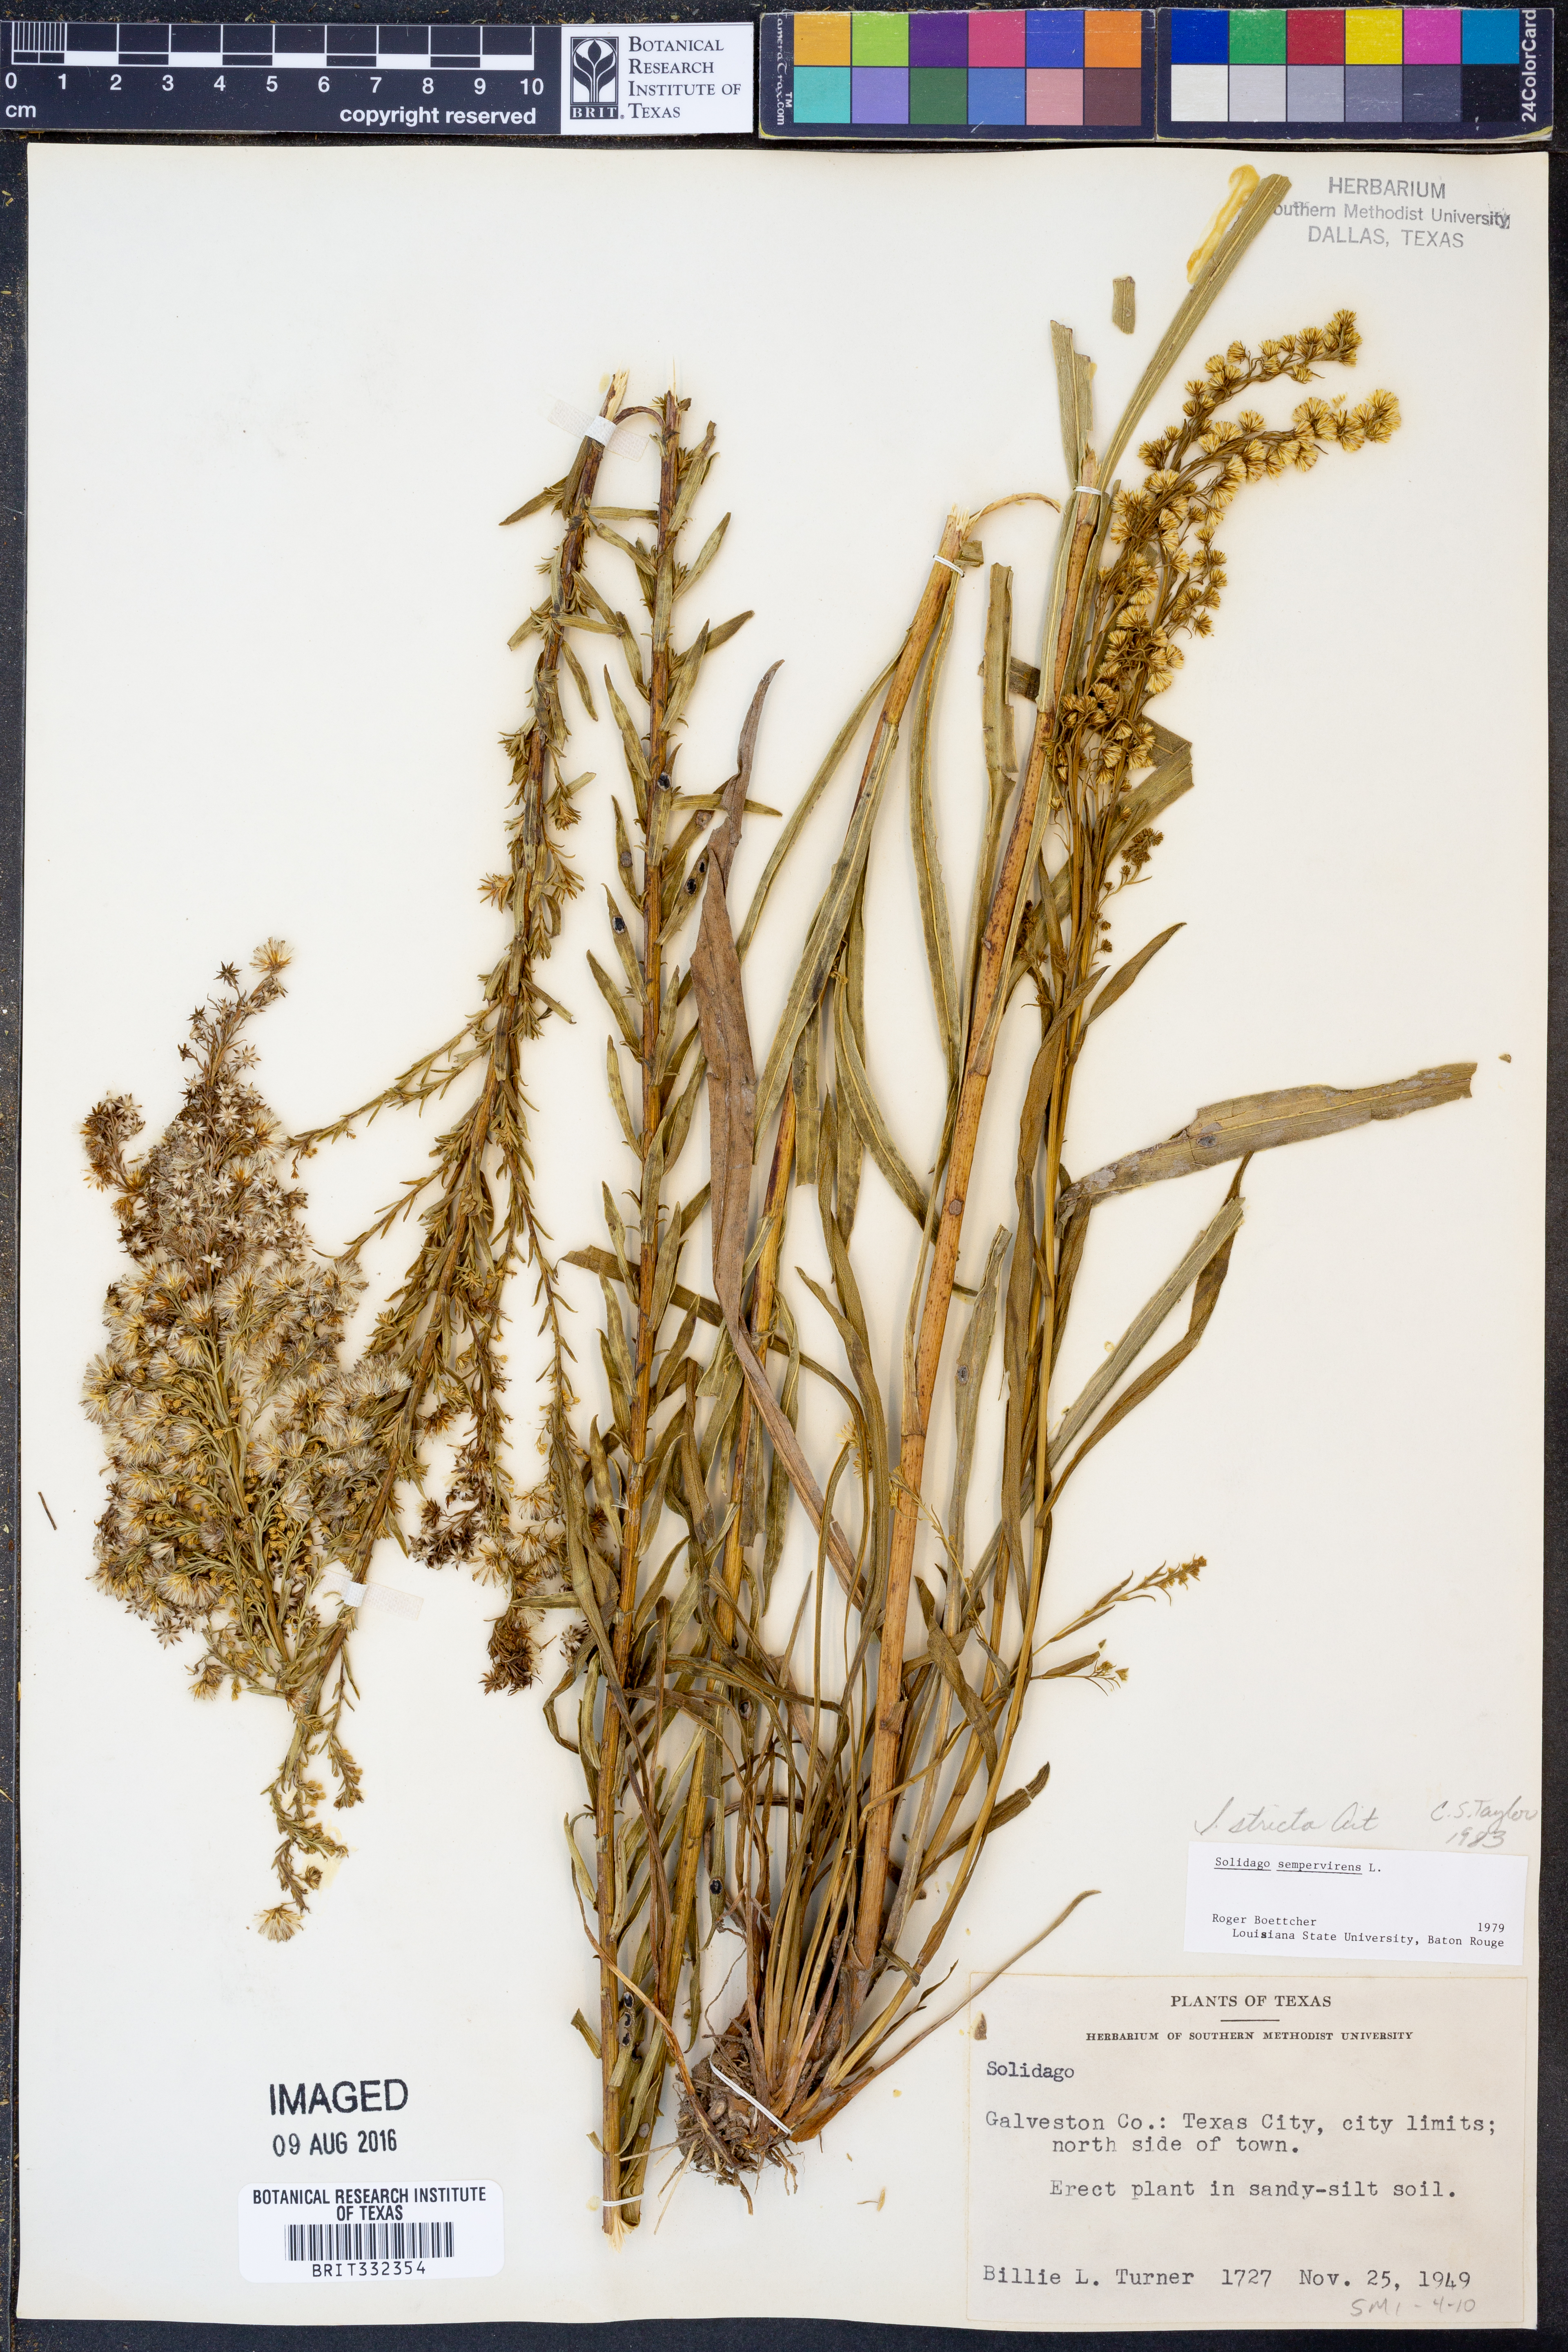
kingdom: Plantae
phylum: Tracheophyta
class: Magnoliopsida
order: Asterales
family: Asteraceae
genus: Solidago
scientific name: Solidago stricta
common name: Pine barren bog goldenrod
